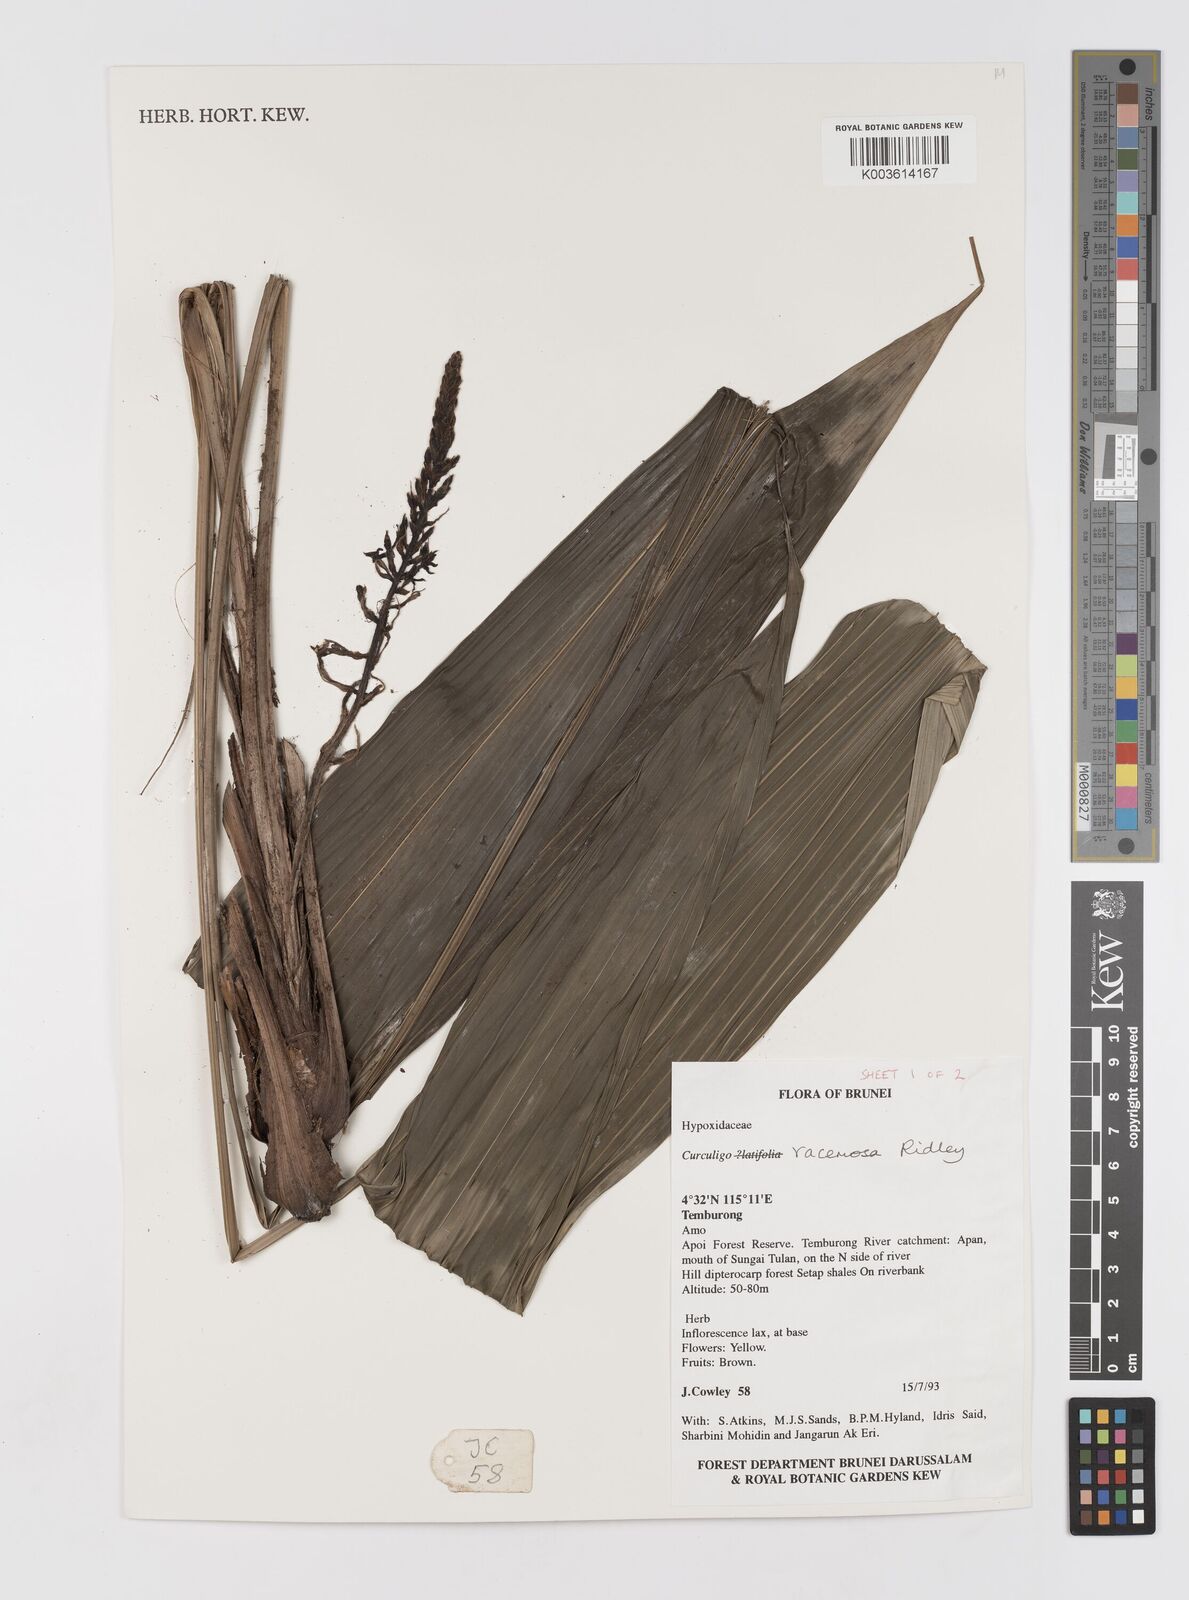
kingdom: Plantae
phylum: Tracheophyta
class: Liliopsida
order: Asparagales
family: Hypoxidaceae
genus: Curculigo
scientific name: Curculigo racemosa
